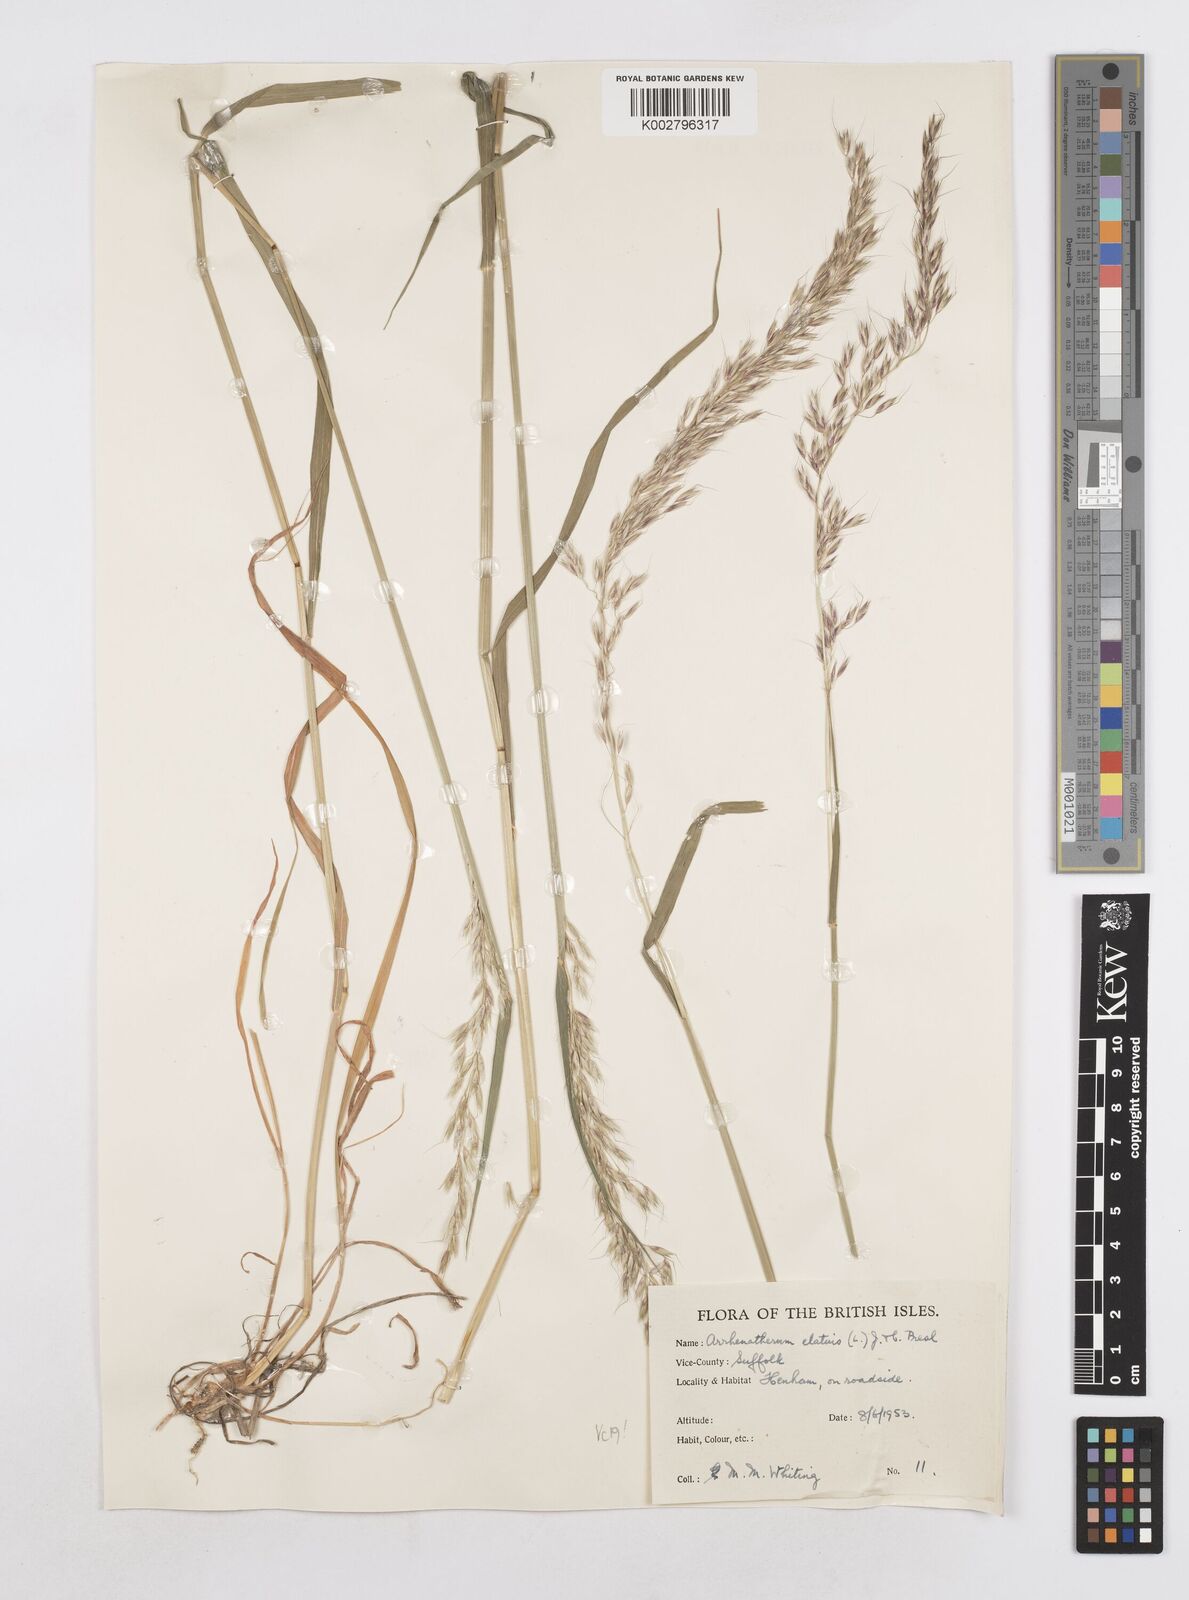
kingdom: Plantae
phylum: Tracheophyta
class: Liliopsida
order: Poales
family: Poaceae
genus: Arrhenatherum
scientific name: Arrhenatherum elatius
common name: Tall oatgrass
